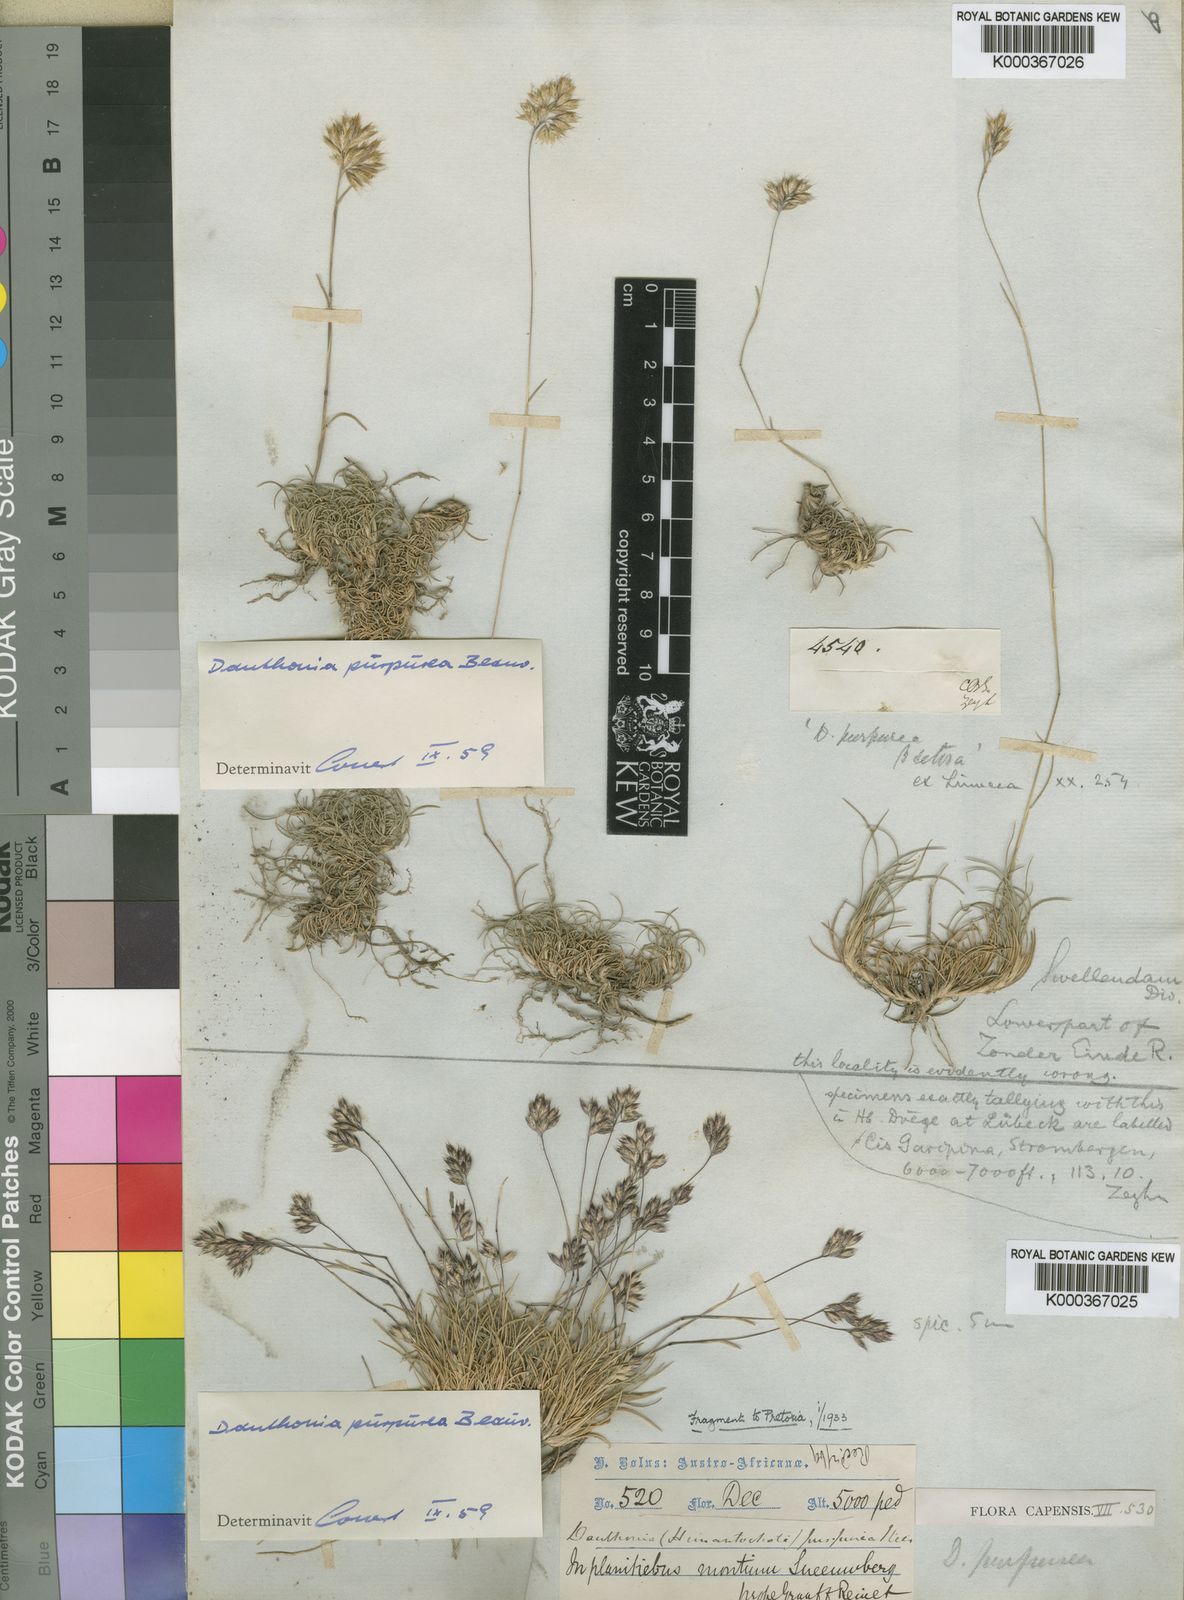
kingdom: Plantae
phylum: Tracheophyta
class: Liliopsida
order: Poales
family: Poaceae
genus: Rytidosperma
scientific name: Rytidosperma
